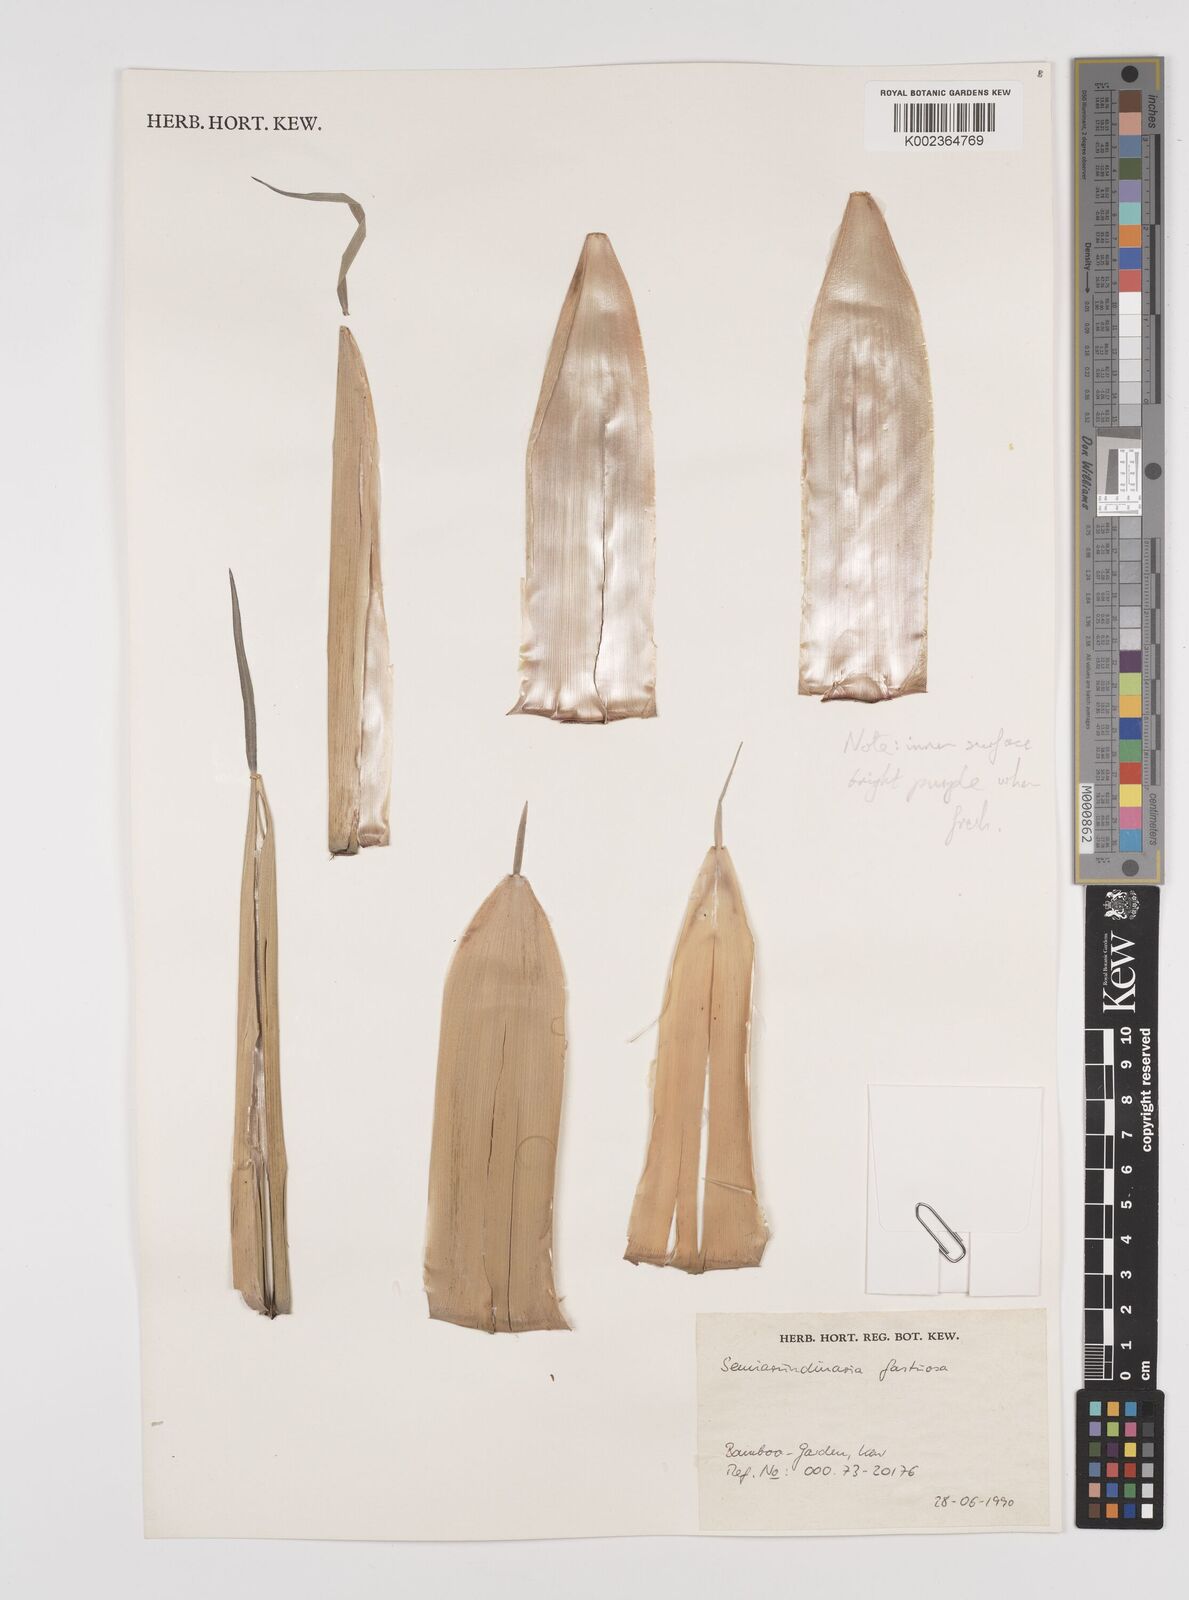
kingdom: Plantae
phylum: Tracheophyta
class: Liliopsida
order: Poales
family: Poaceae
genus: Semiarundinaria
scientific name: Semiarundinaria fastuosa
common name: Narihira bamboo
